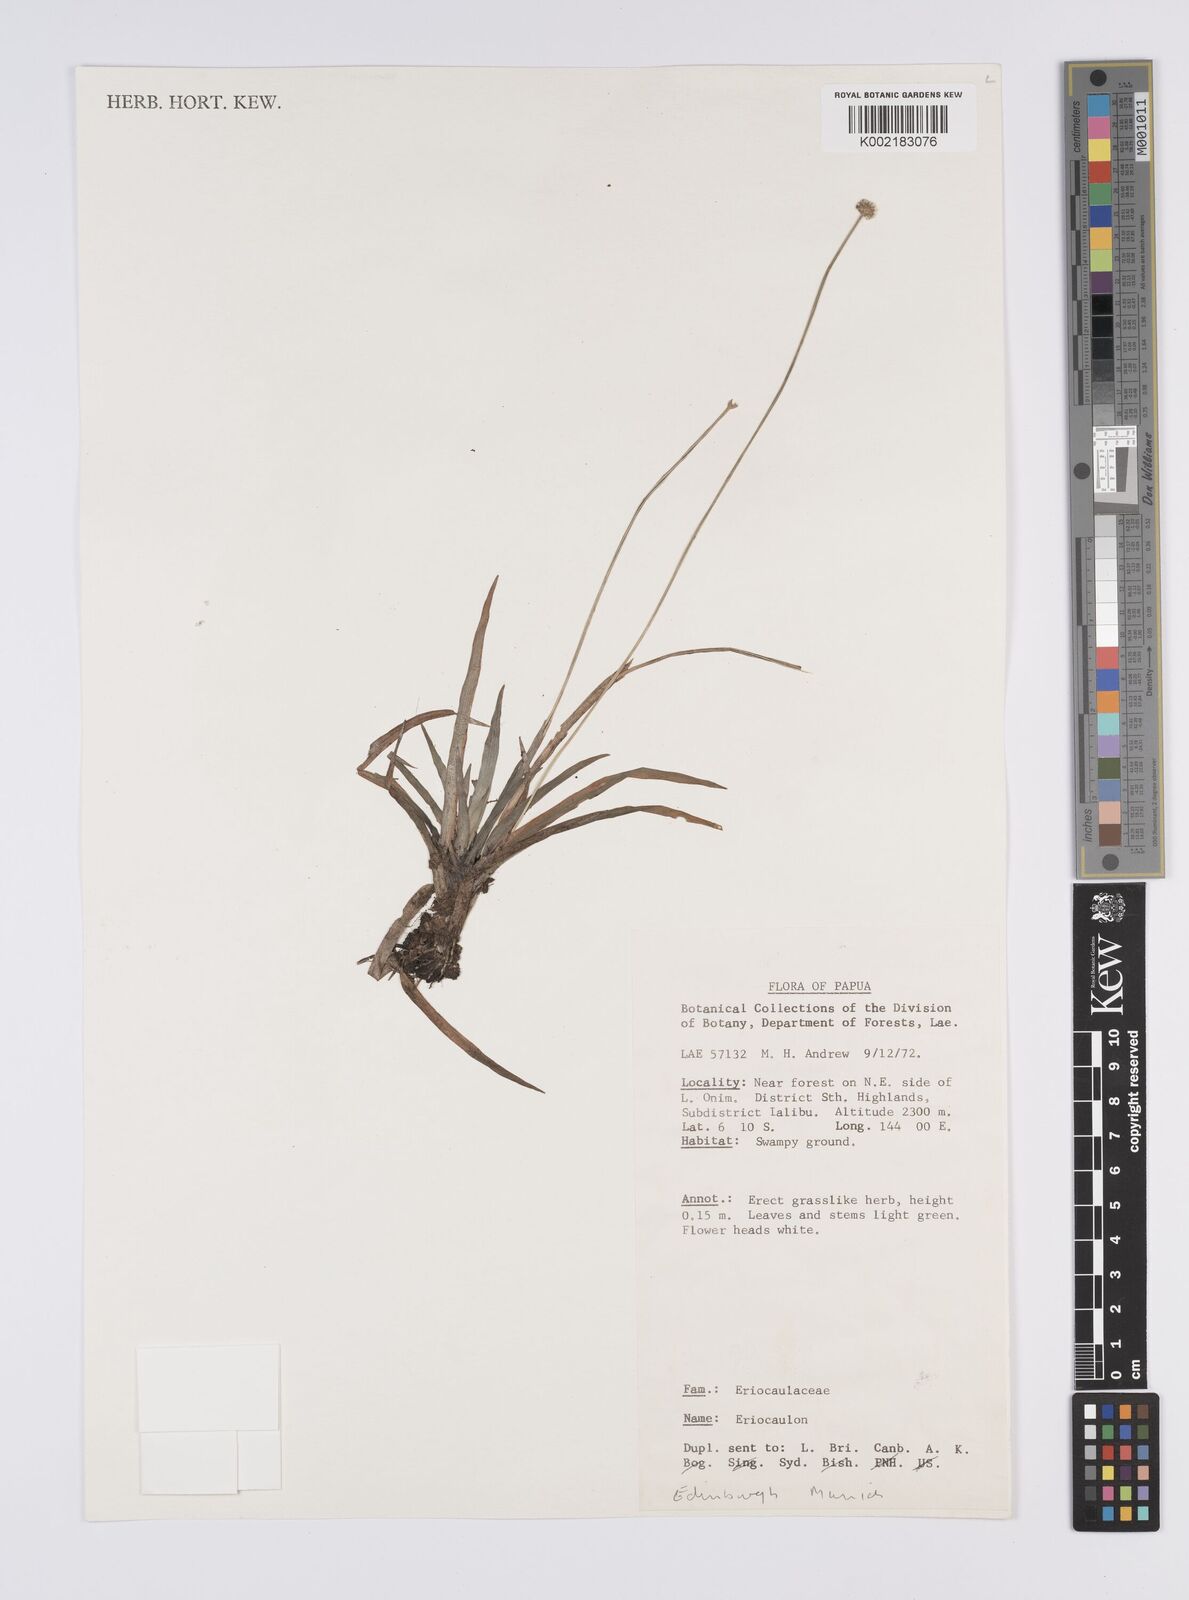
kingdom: Plantae
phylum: Tracheophyta
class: Liliopsida
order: Poales
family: Eriocaulaceae
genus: Eriocaulon
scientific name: Eriocaulon
